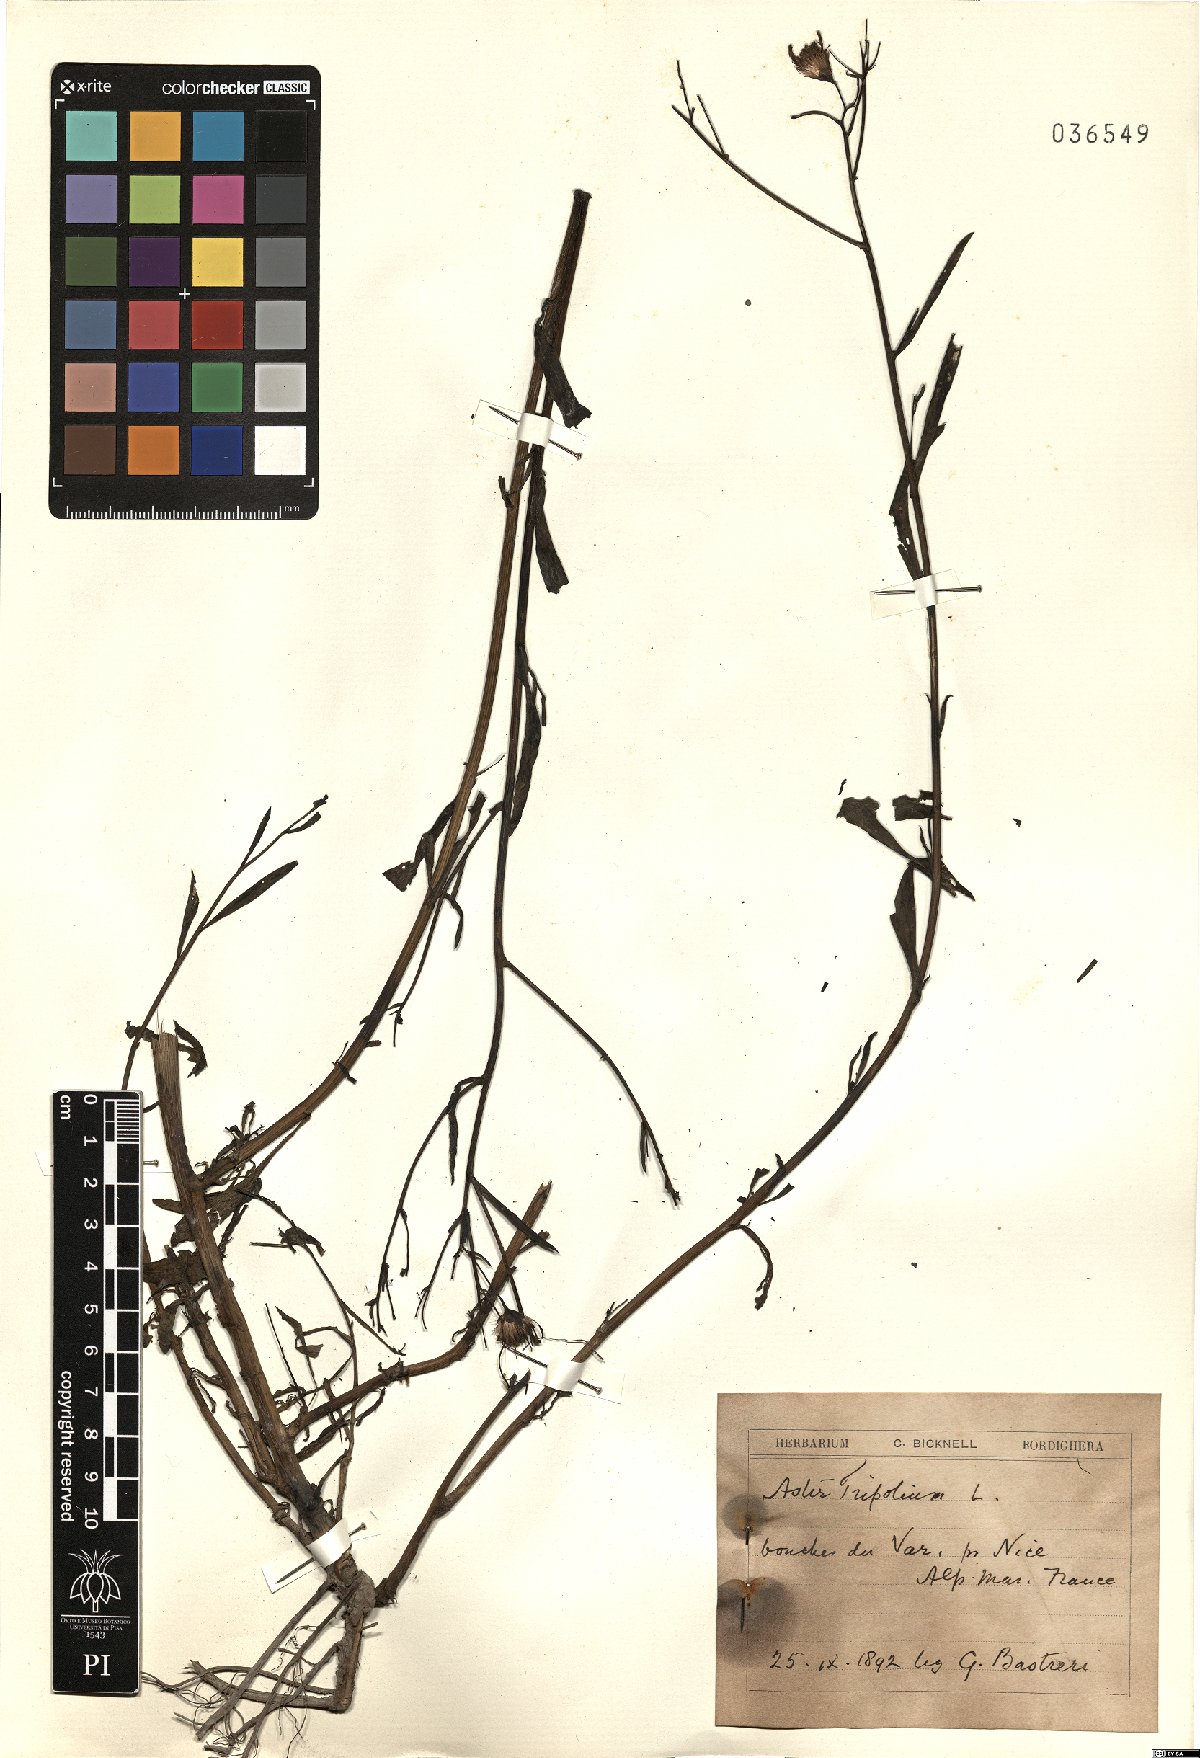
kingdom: Plantae
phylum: Tracheophyta
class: Magnoliopsida
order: Asterales
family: Asteraceae
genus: Tripolium
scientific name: Tripolium pannonicum
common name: Sea aster
